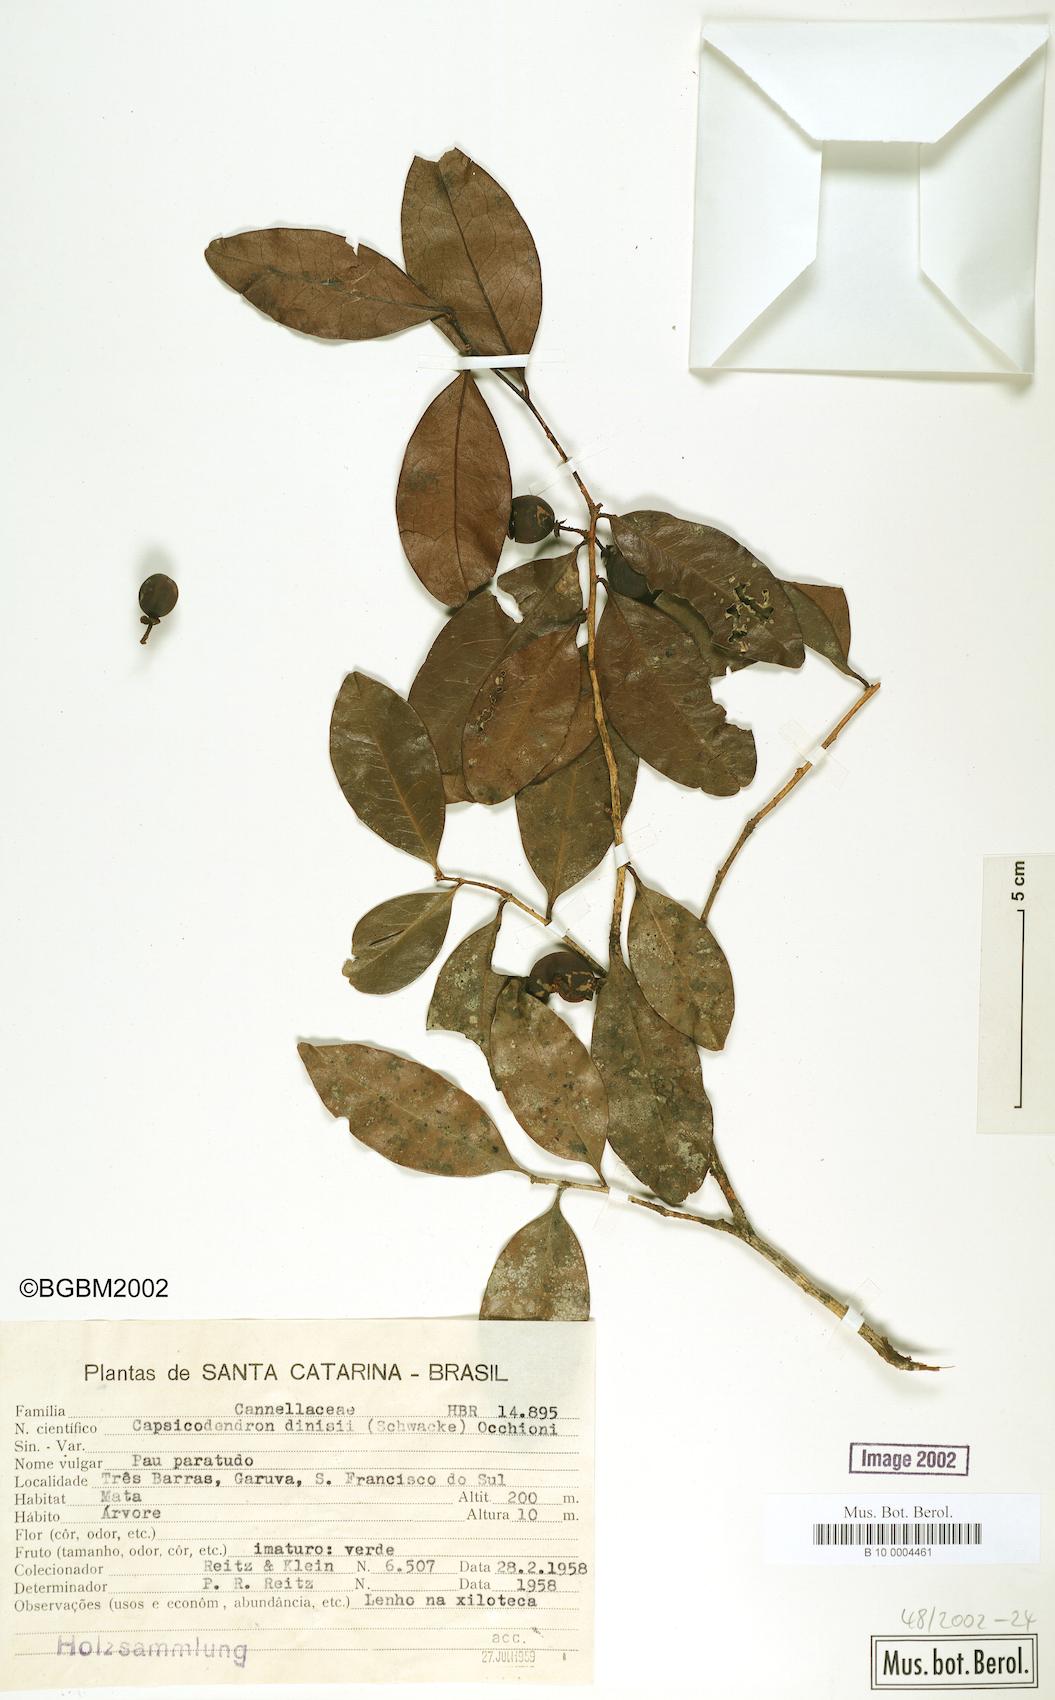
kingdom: Plantae
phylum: Tracheophyta
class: Magnoliopsida
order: Canellales
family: Canellaceae
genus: Cinnamodendron
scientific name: Cinnamodendron dinisii
